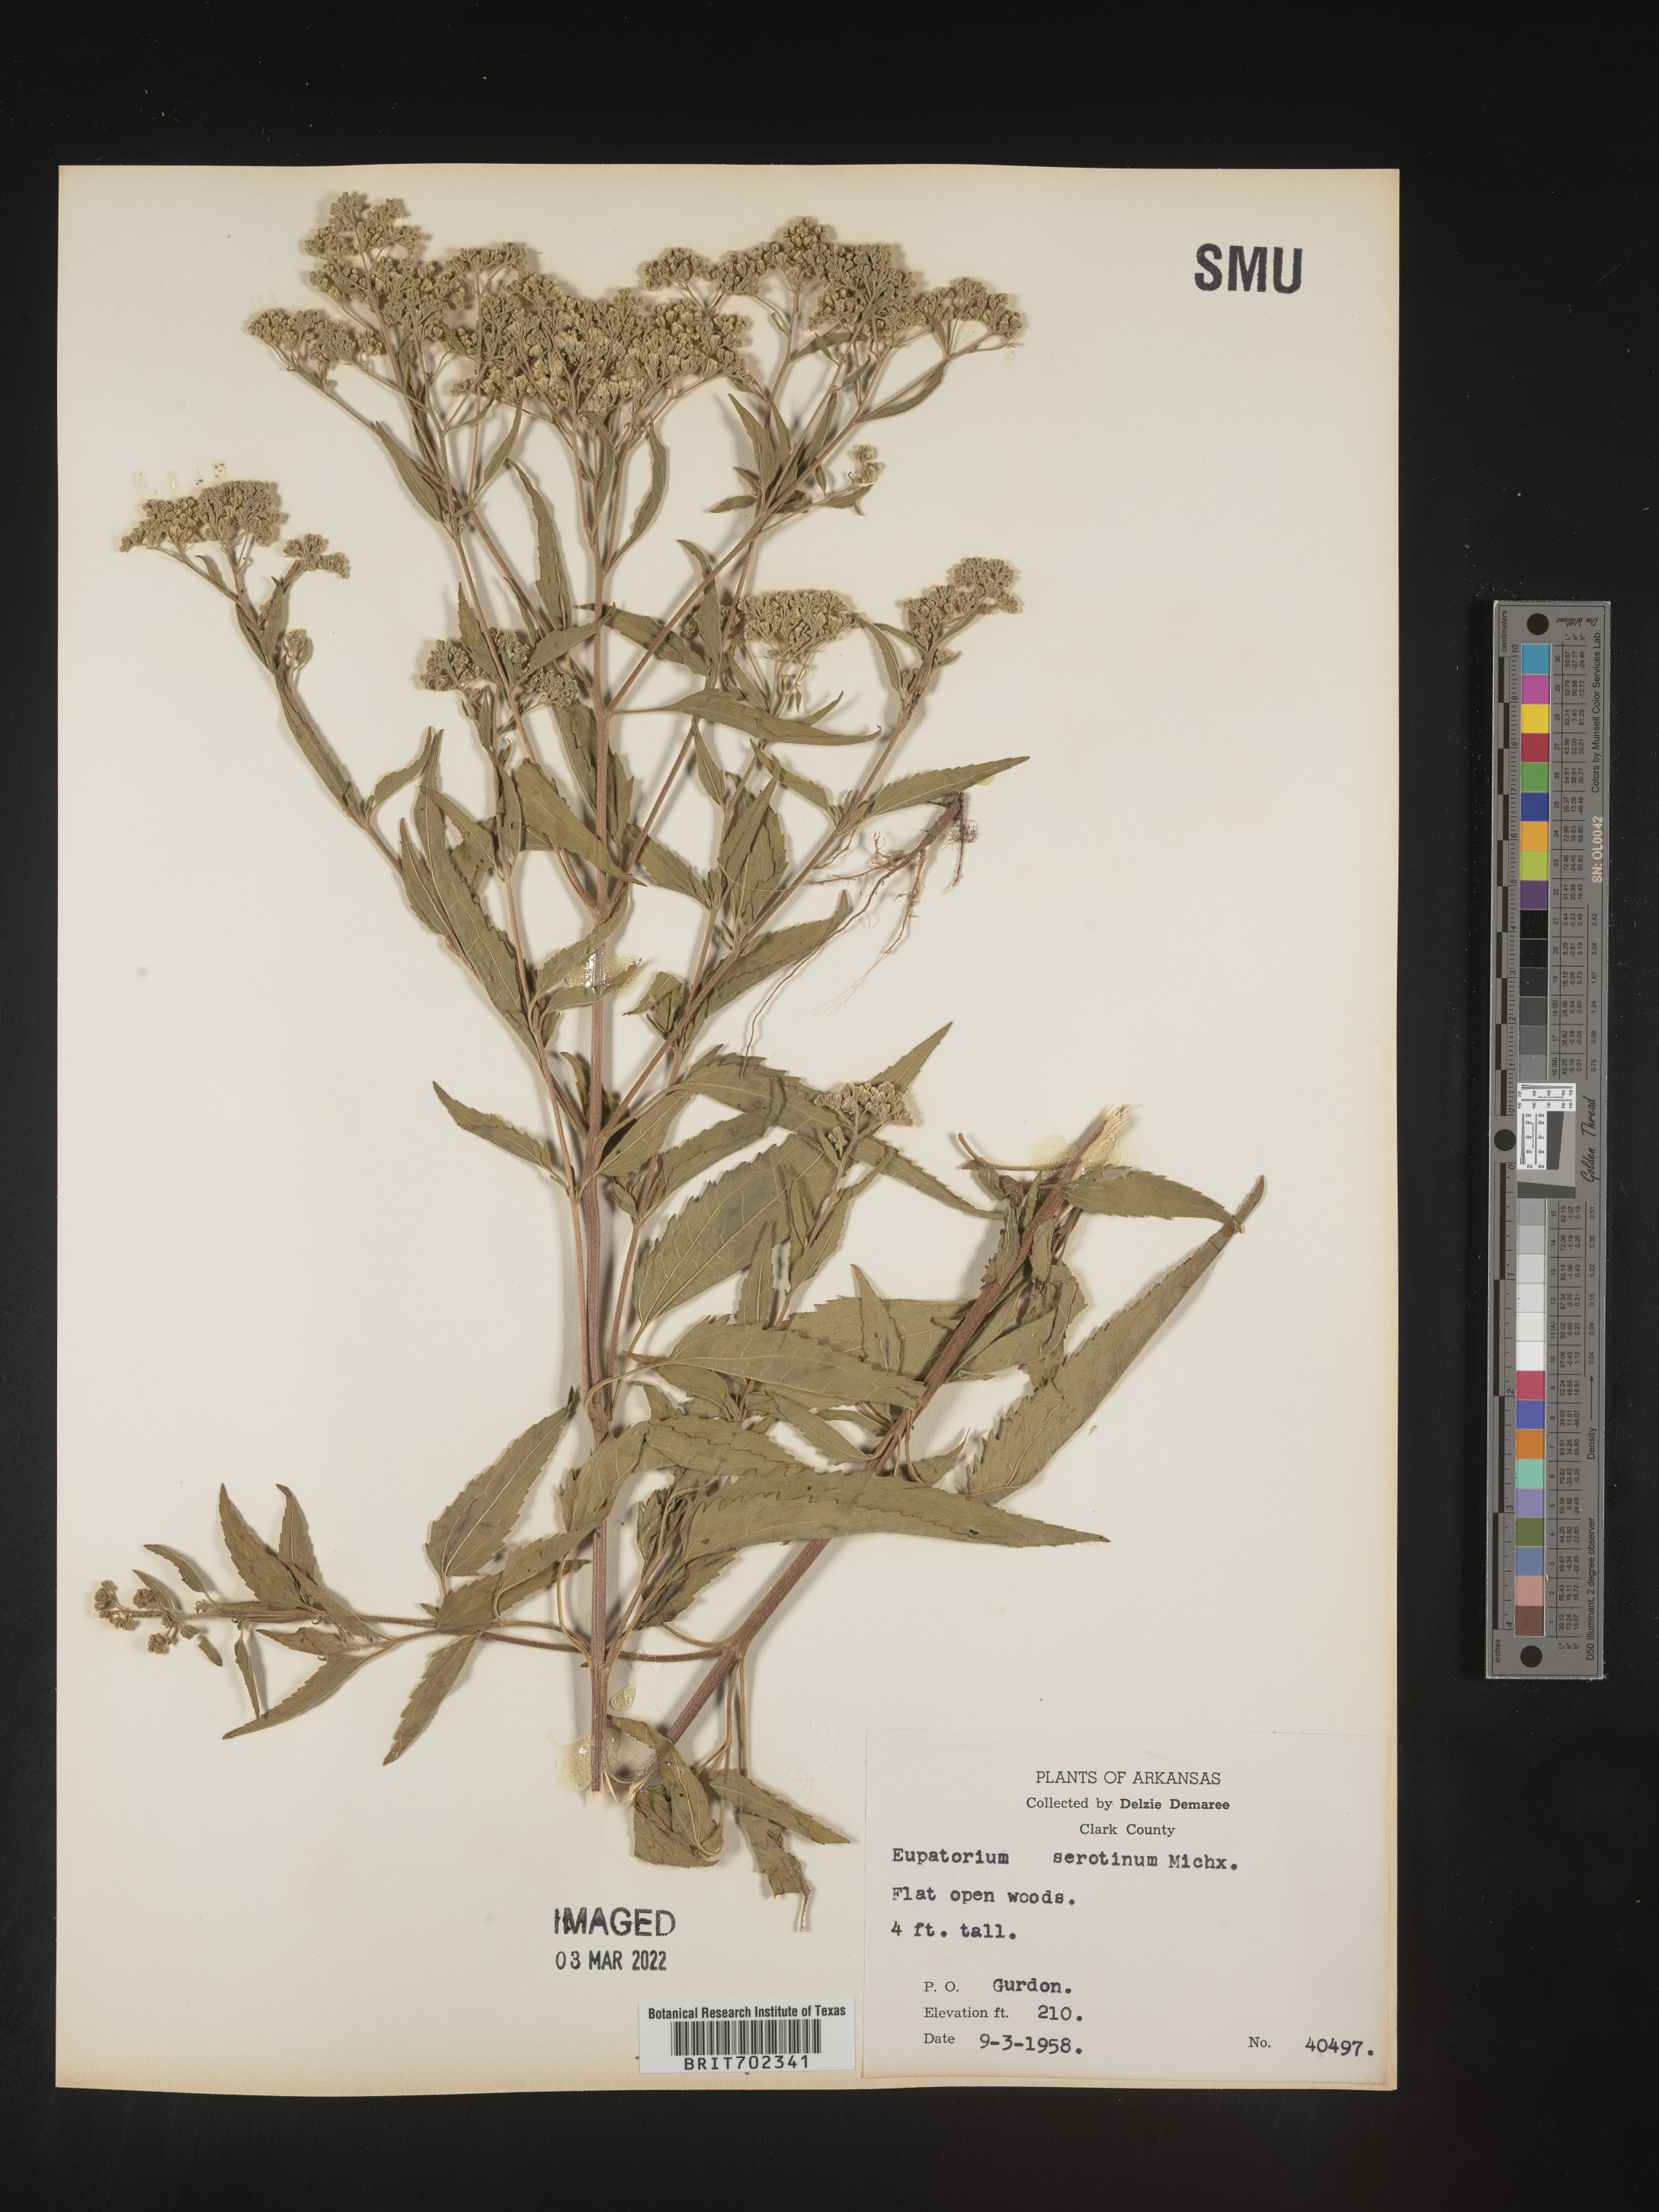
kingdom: Plantae
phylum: Tracheophyta
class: Magnoliopsida
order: Asterales
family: Asteraceae
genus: Eupatorium
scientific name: Eupatorium serotinum
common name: Late boneset
